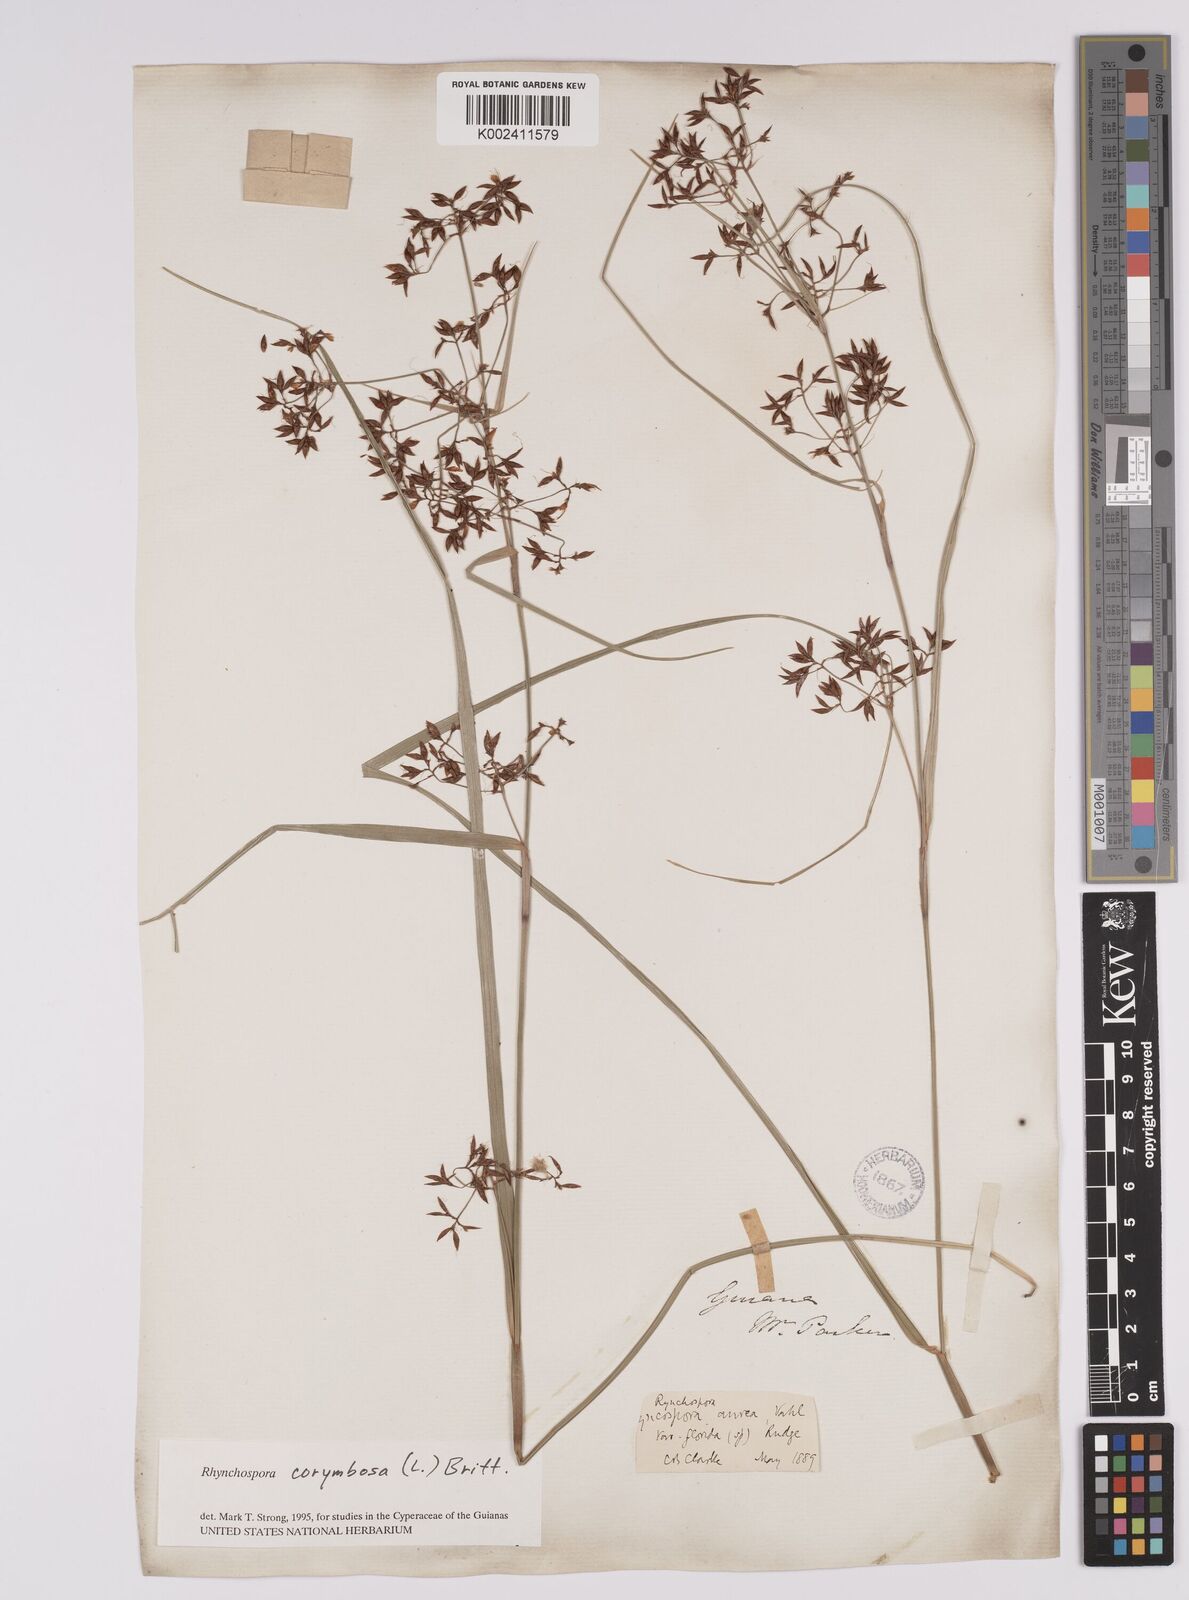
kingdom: Plantae
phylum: Tracheophyta
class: Liliopsida
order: Poales
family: Cyperaceae
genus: Rhynchospora
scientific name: Rhynchospora corymbosa
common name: Golden beak sedge
